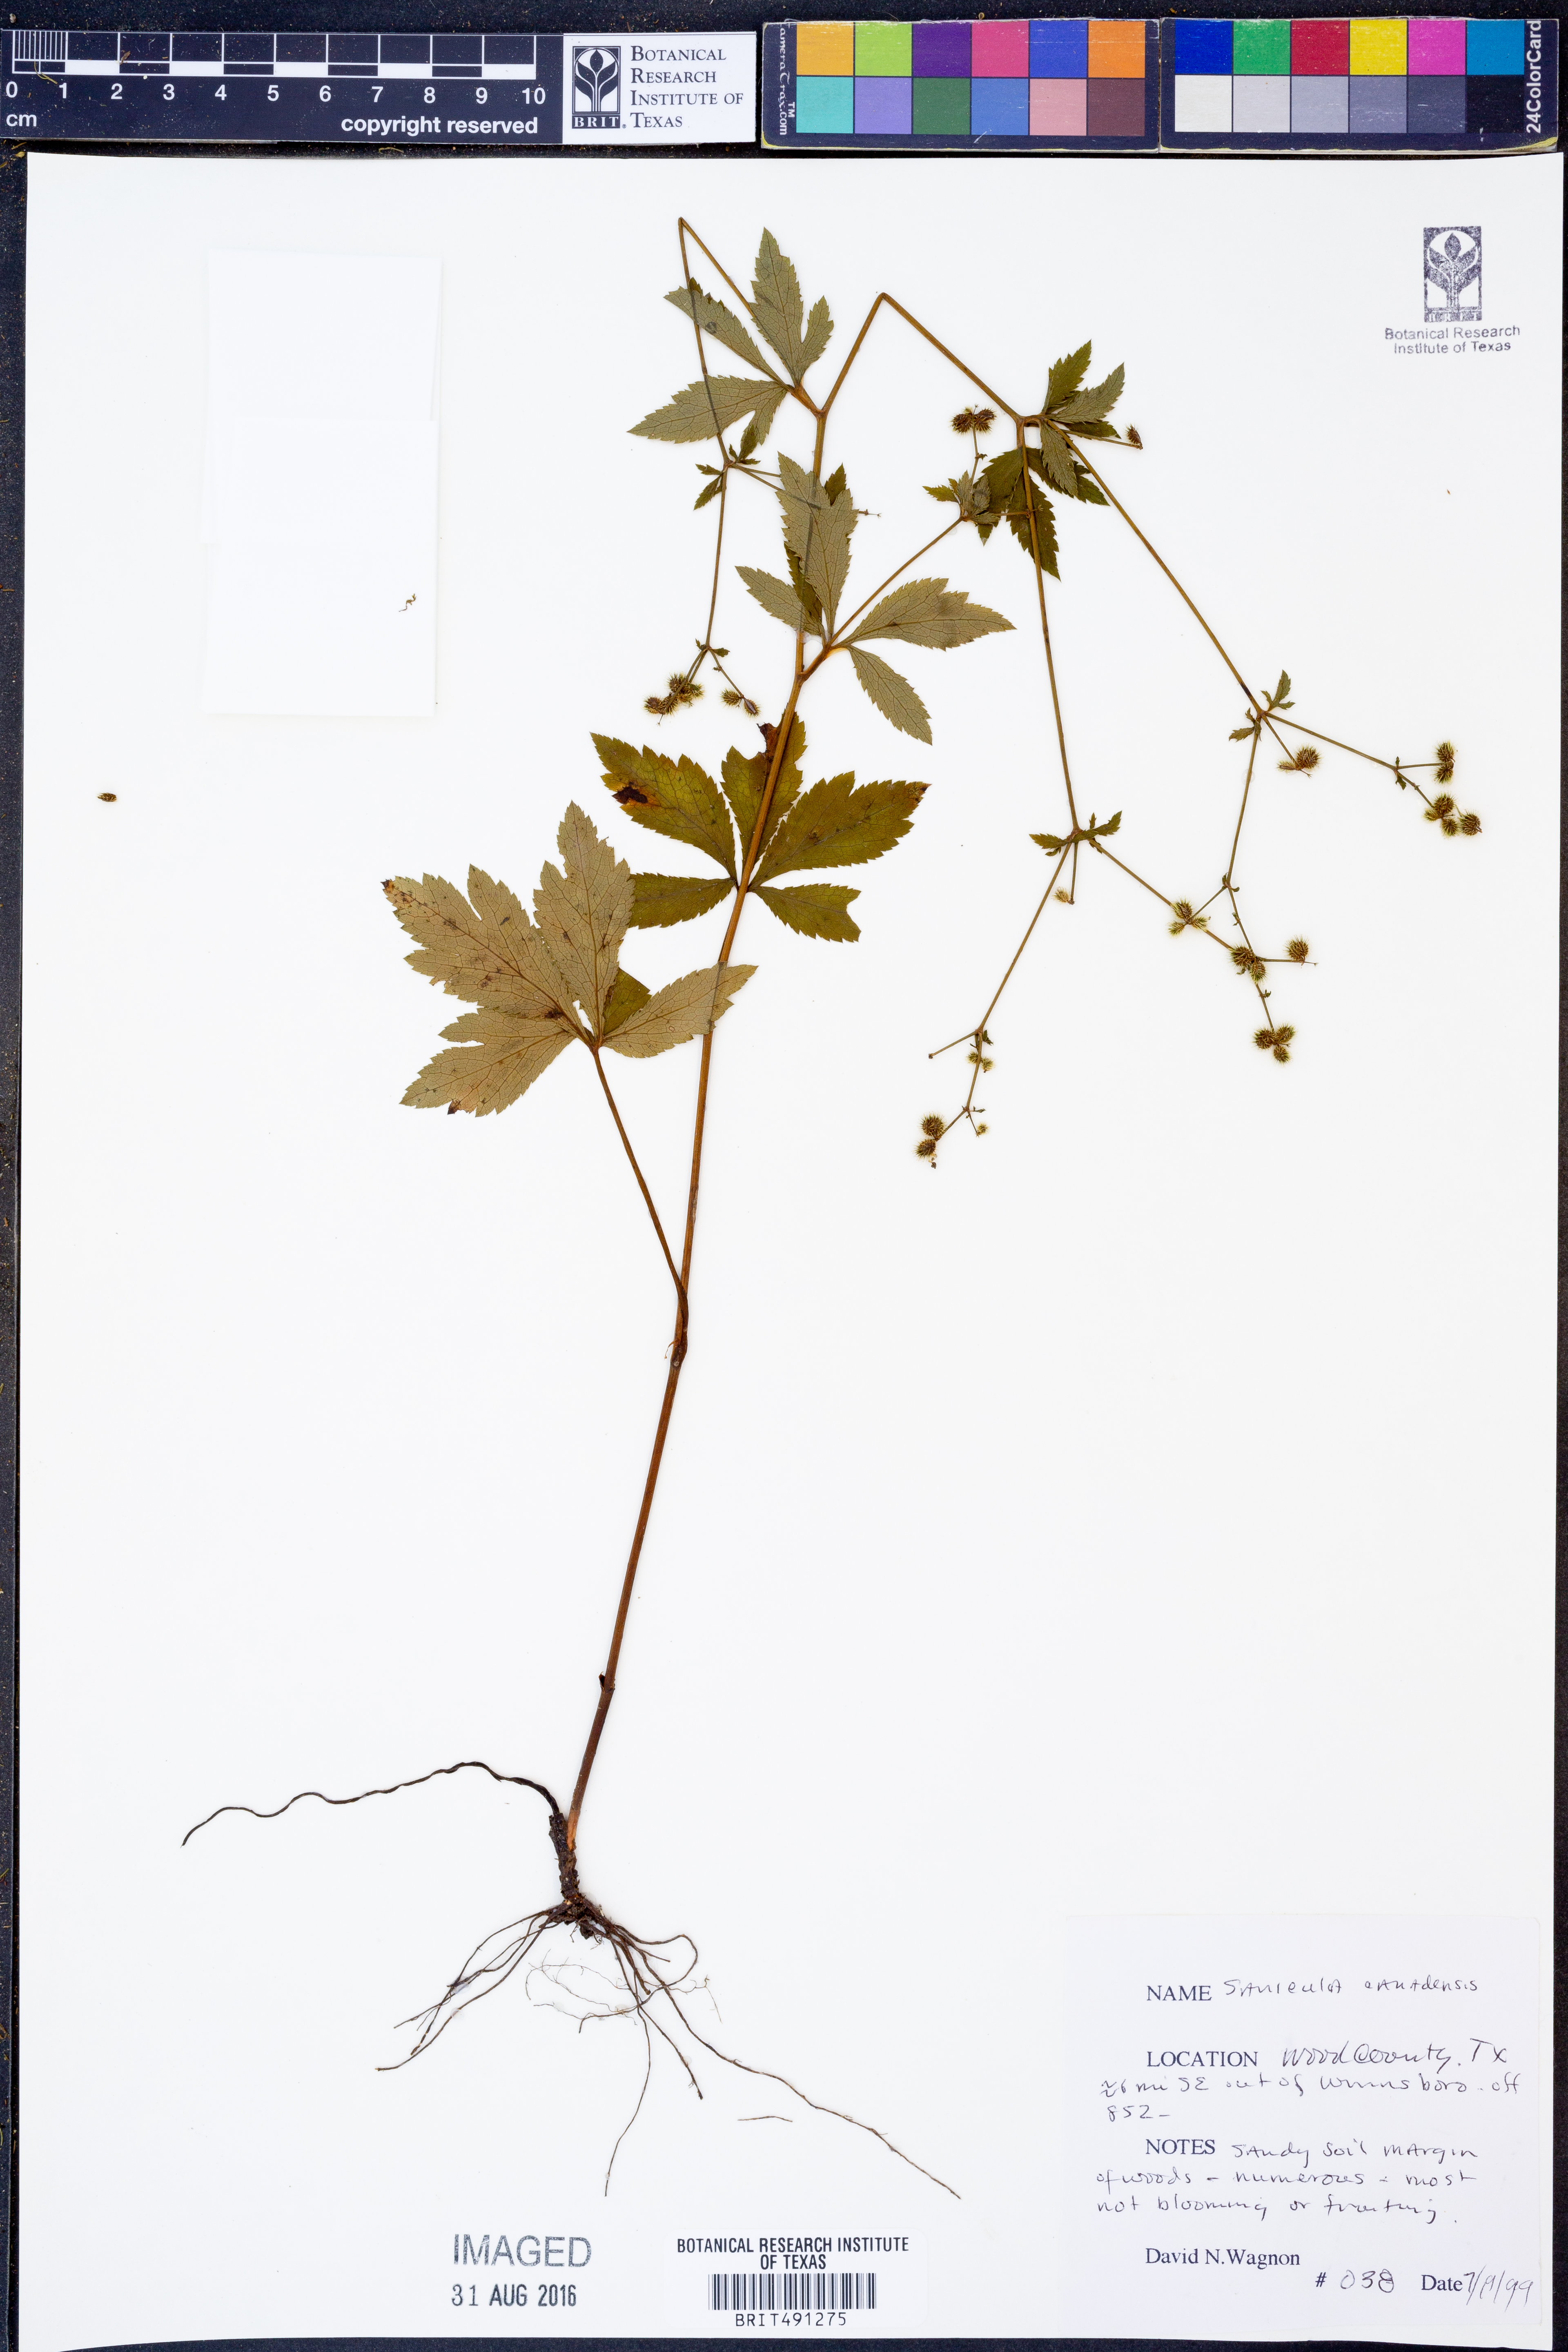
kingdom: Plantae
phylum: Tracheophyta
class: Magnoliopsida
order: Apiales
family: Apiaceae
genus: Sanicula
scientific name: Sanicula canadensis
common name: Canada sanicle
